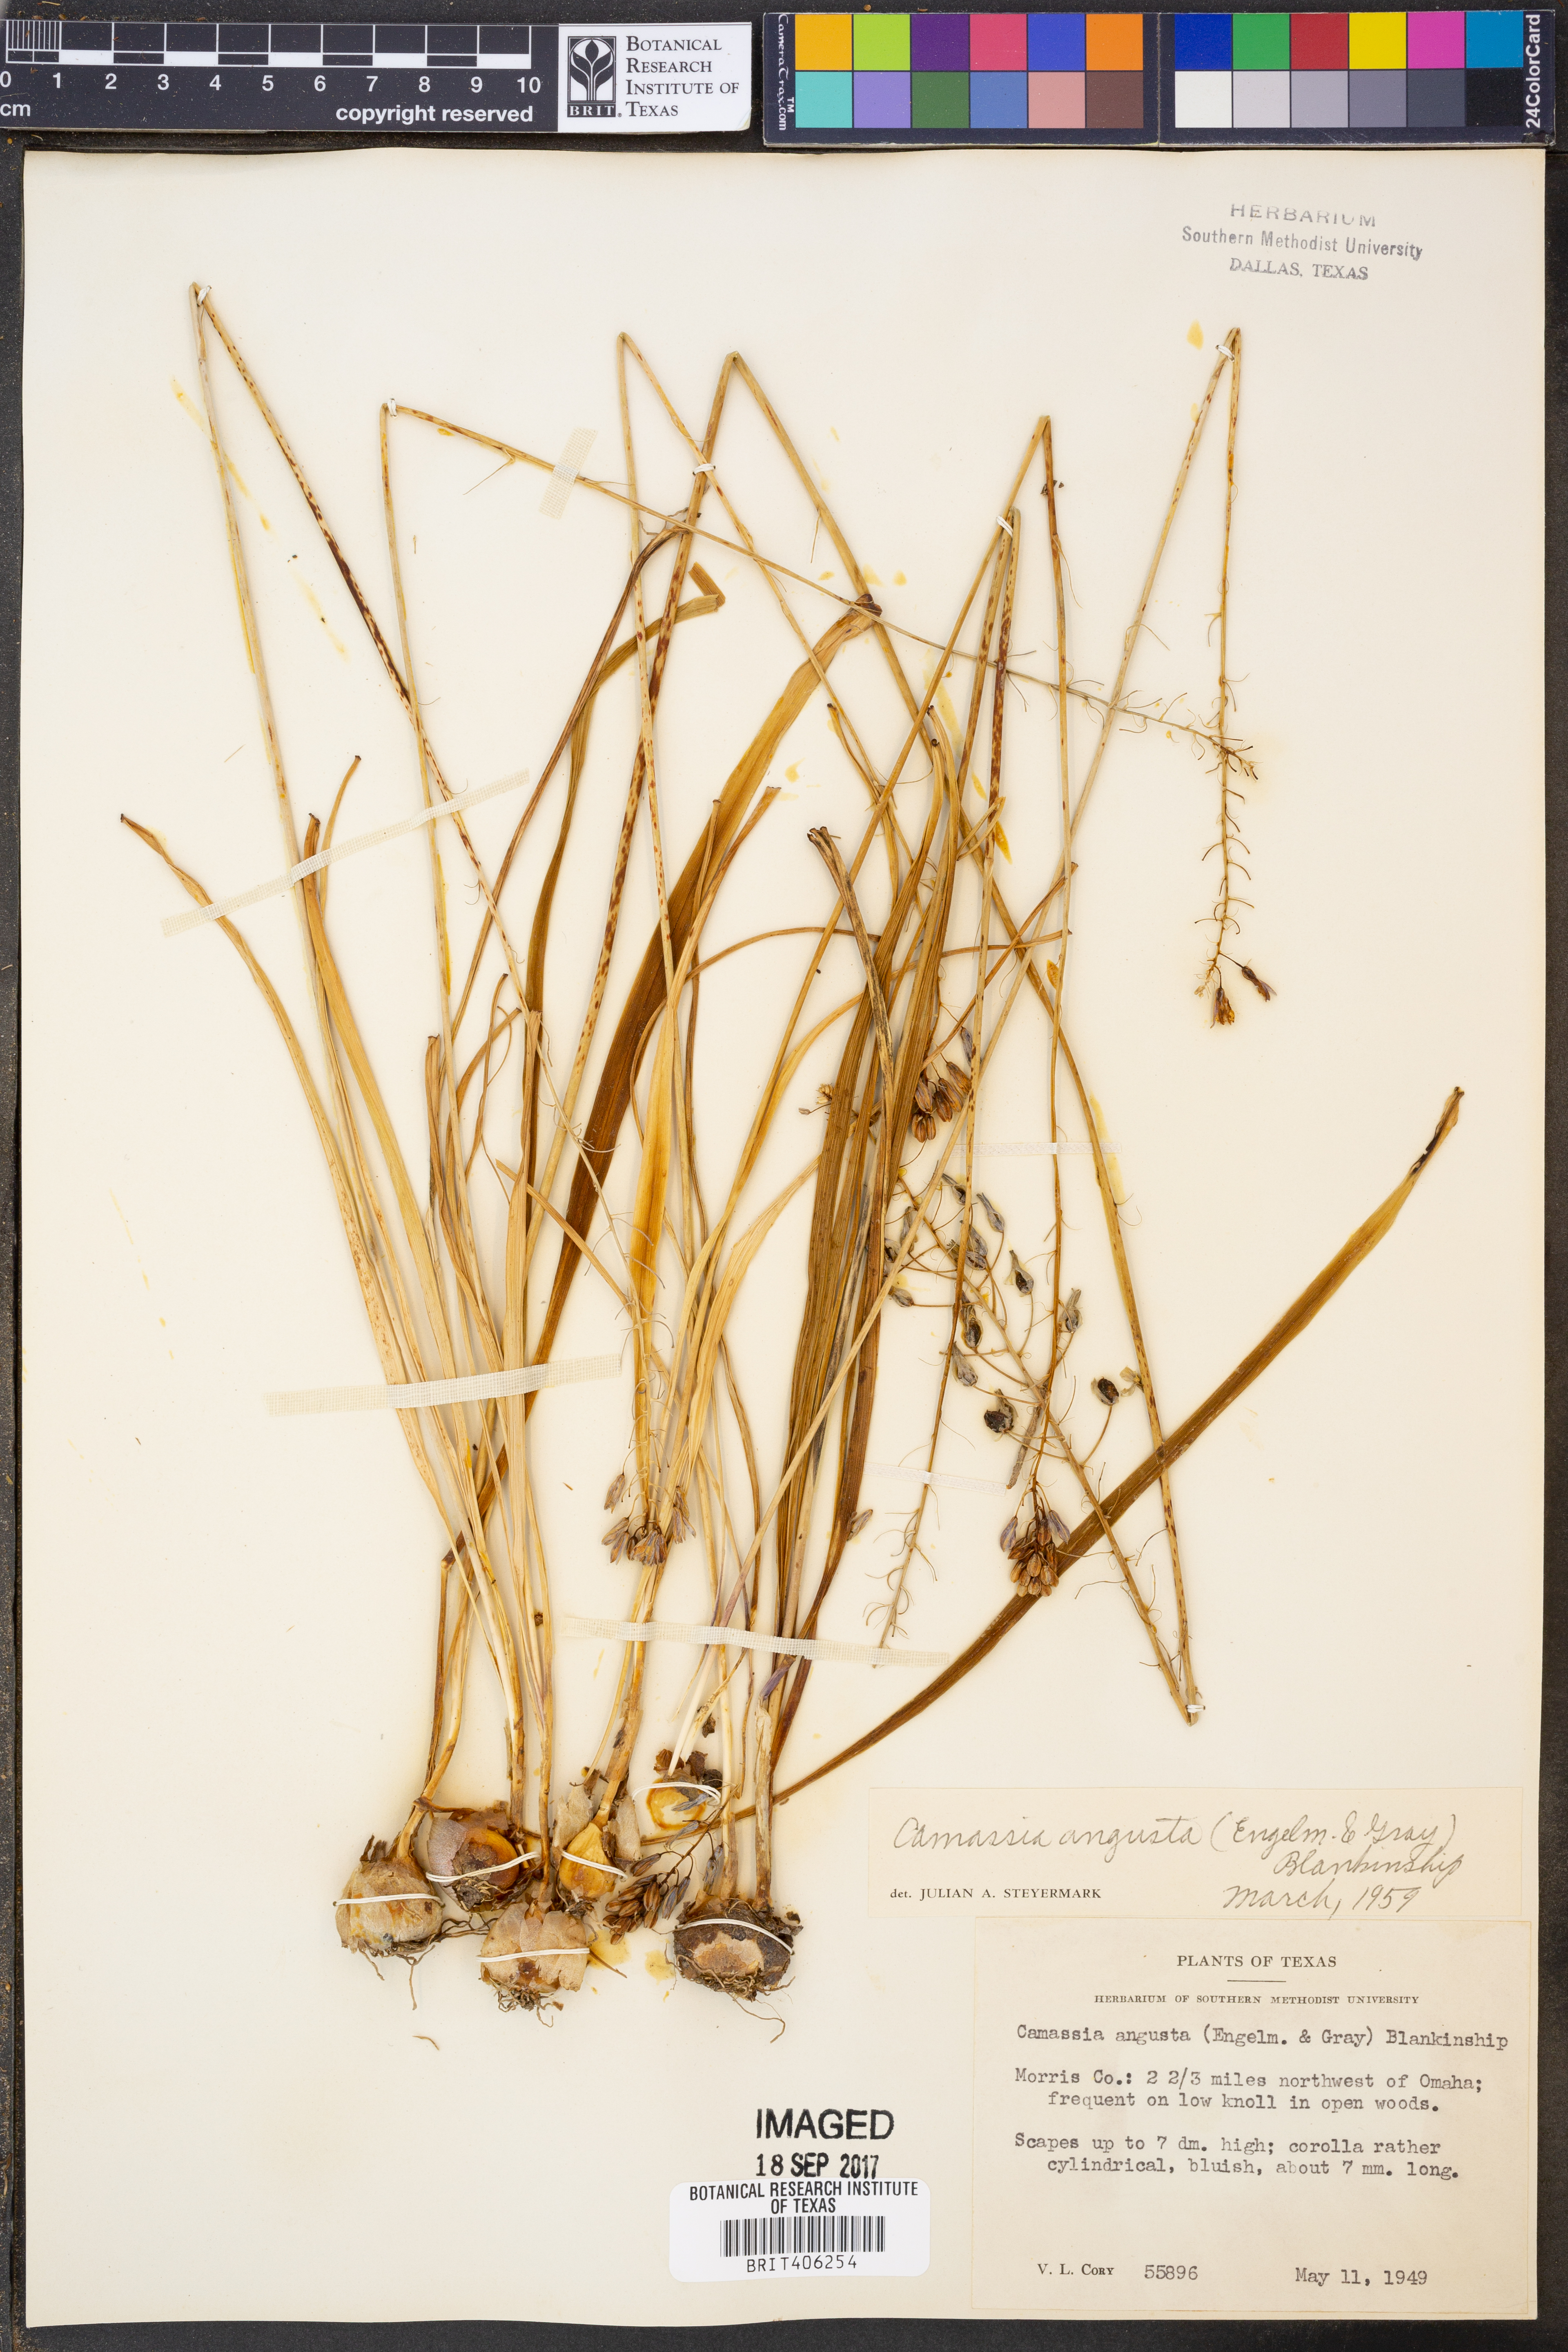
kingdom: Plantae
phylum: Tracheophyta
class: Liliopsida
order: Asparagales
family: Asparagaceae
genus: Camassia
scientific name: Camassia angusta
